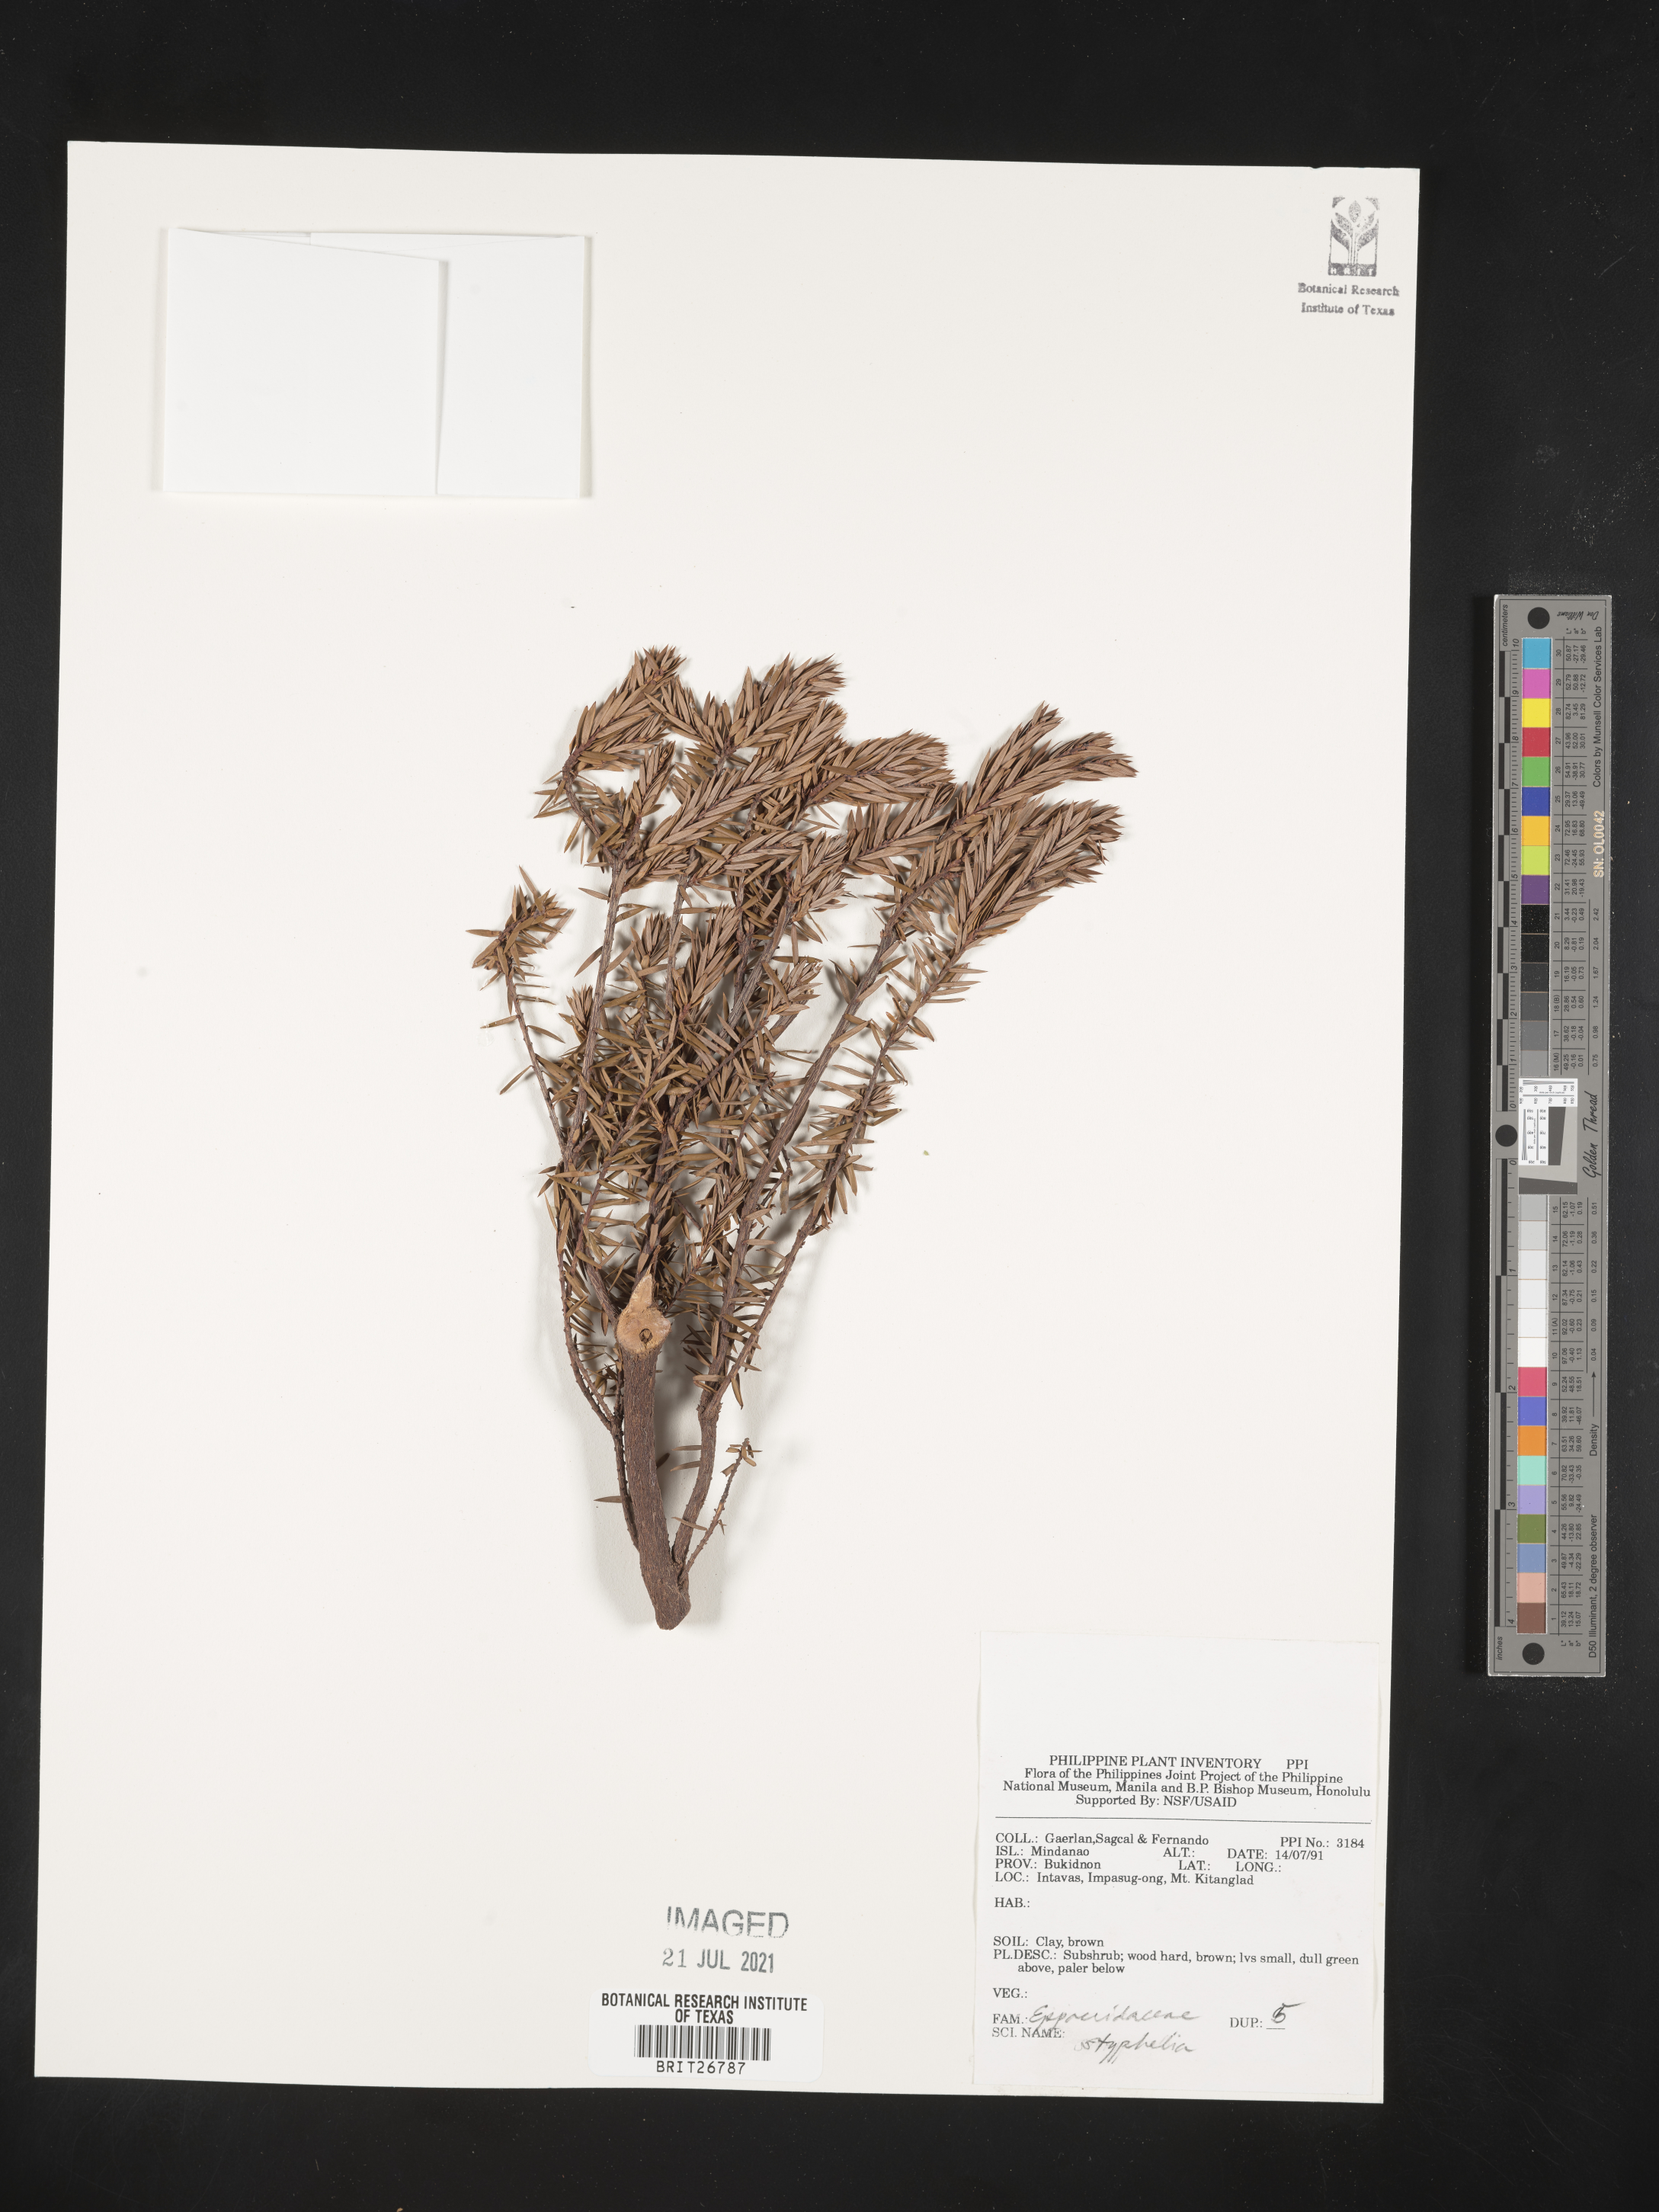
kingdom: Plantae
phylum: Tracheophyta
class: Magnoliopsida
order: Ericales
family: Ericaceae
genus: Styphelia
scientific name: Styphelia
